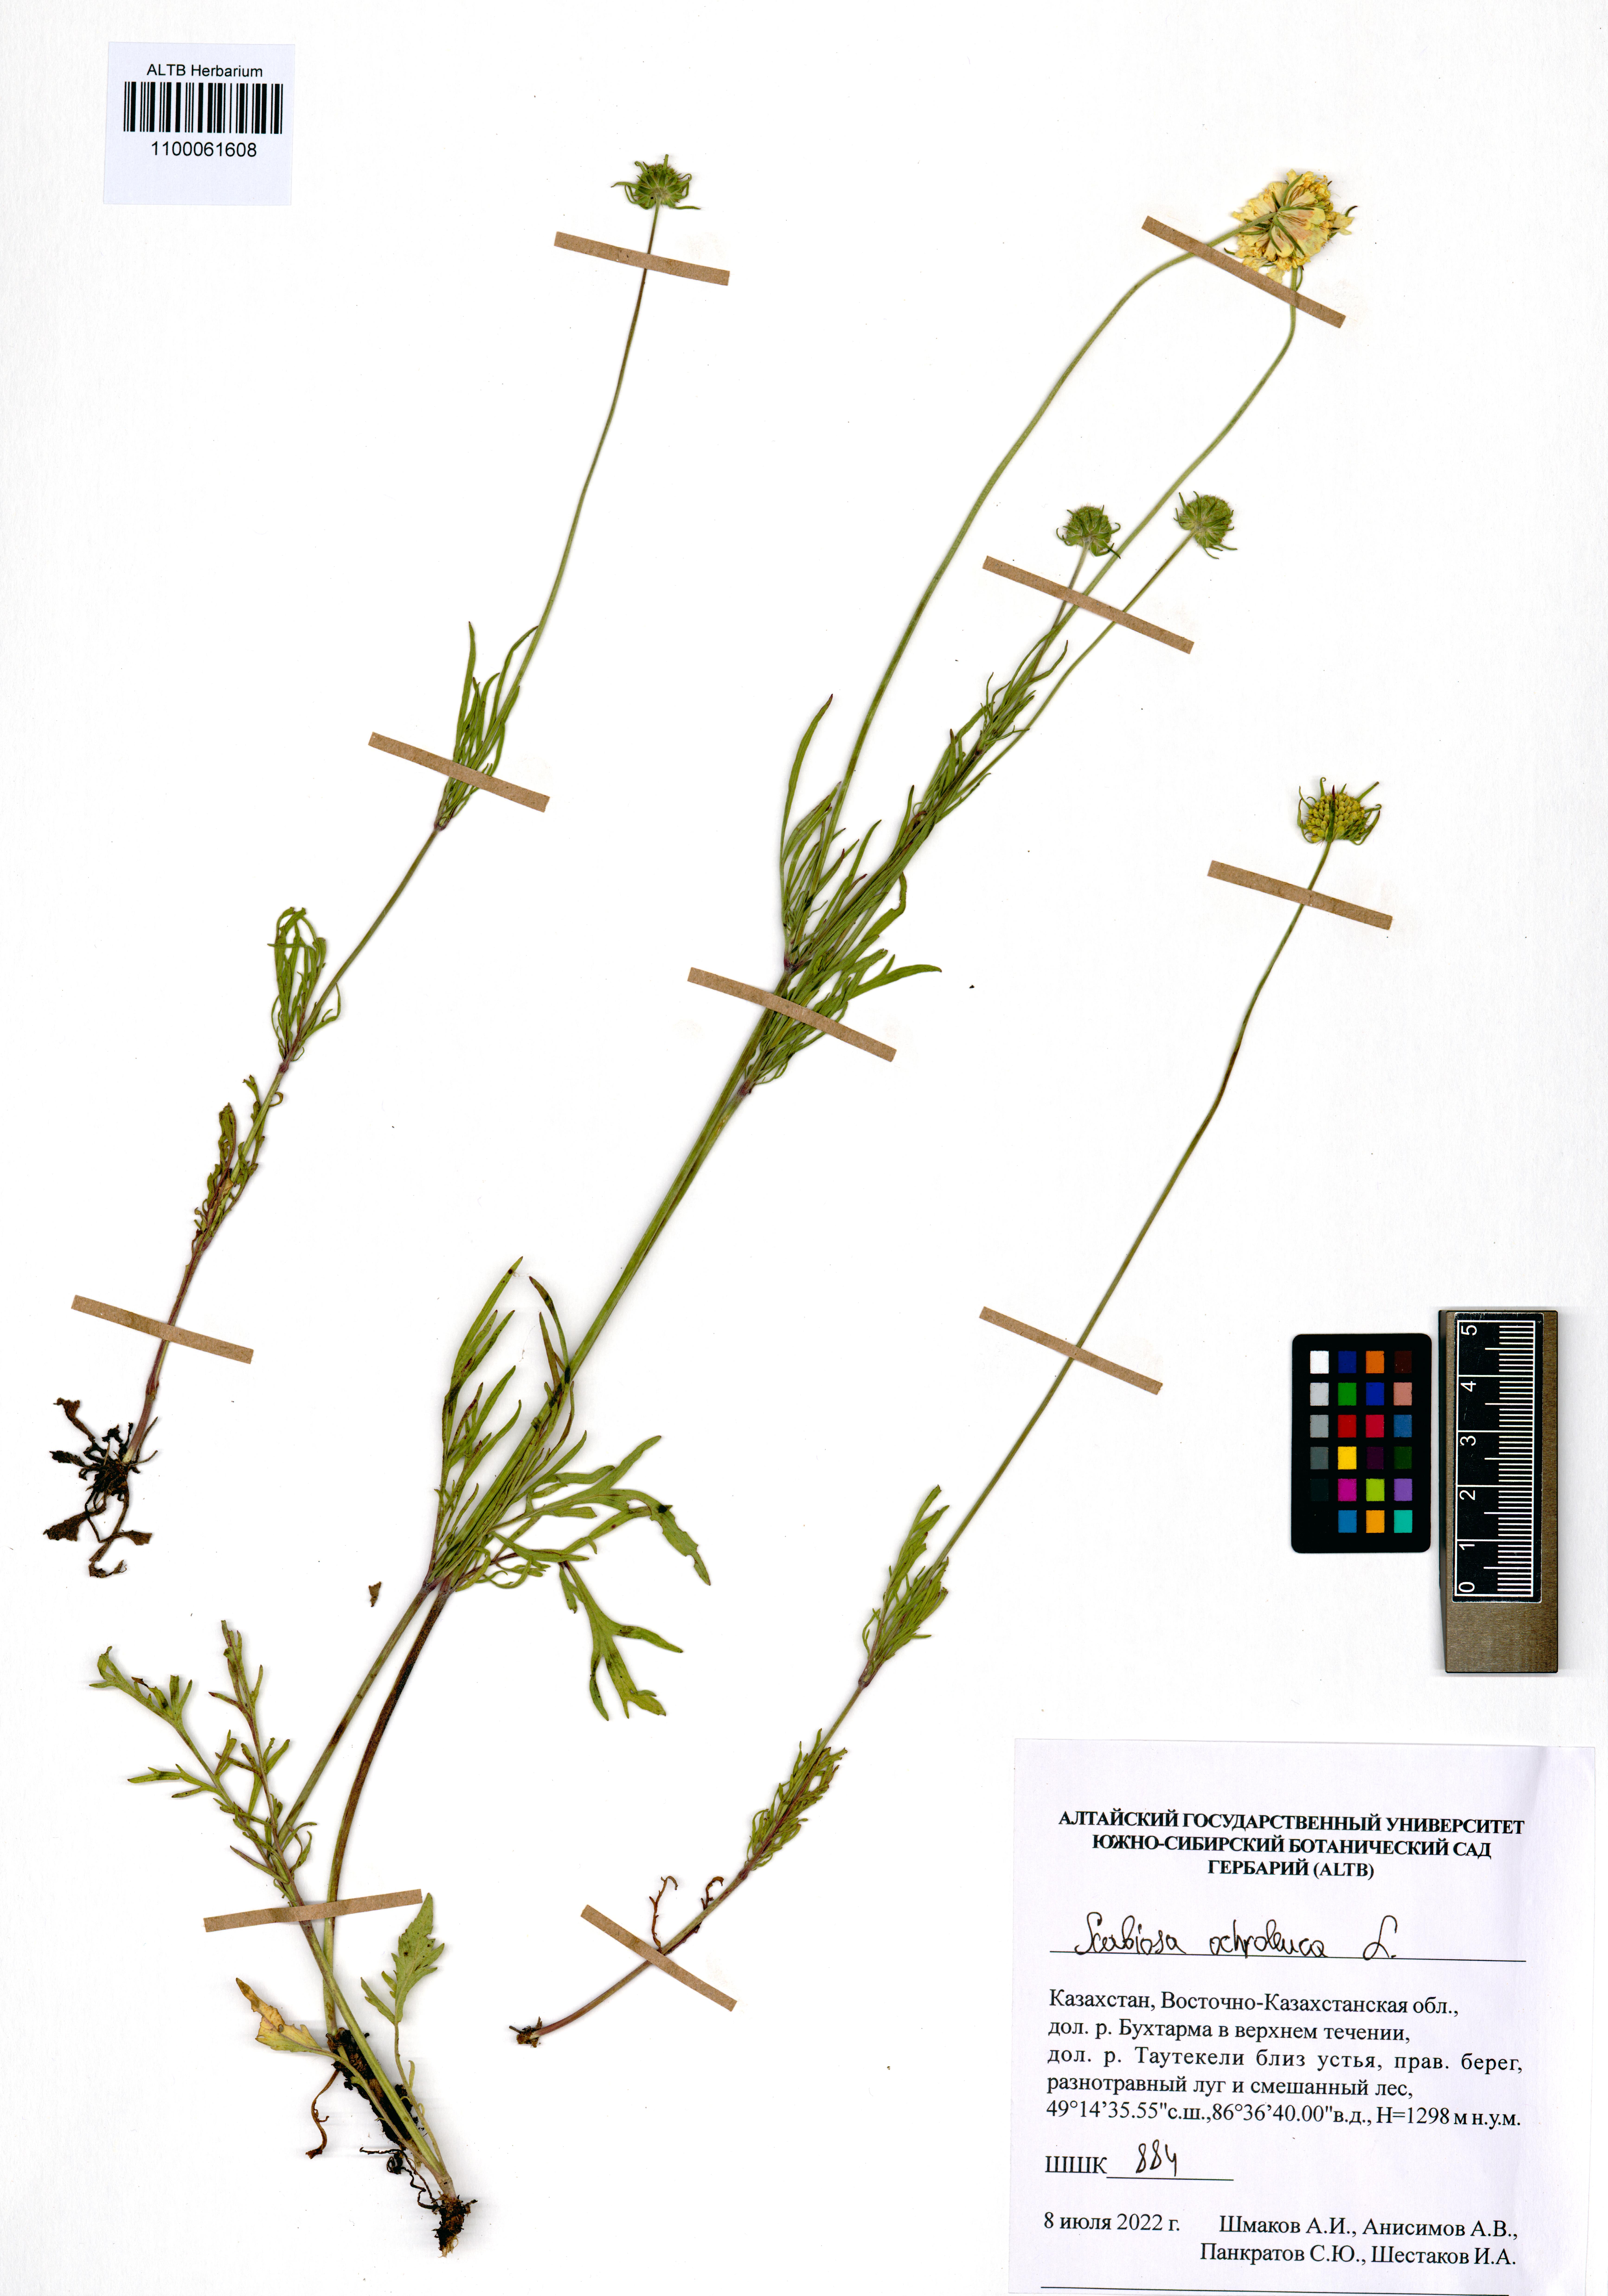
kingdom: Plantae
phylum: Tracheophyta
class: Magnoliopsida
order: Dipsacales
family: Caprifoliaceae
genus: Scabiosa
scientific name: Scabiosa ochroleuca
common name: Cream pincushions
